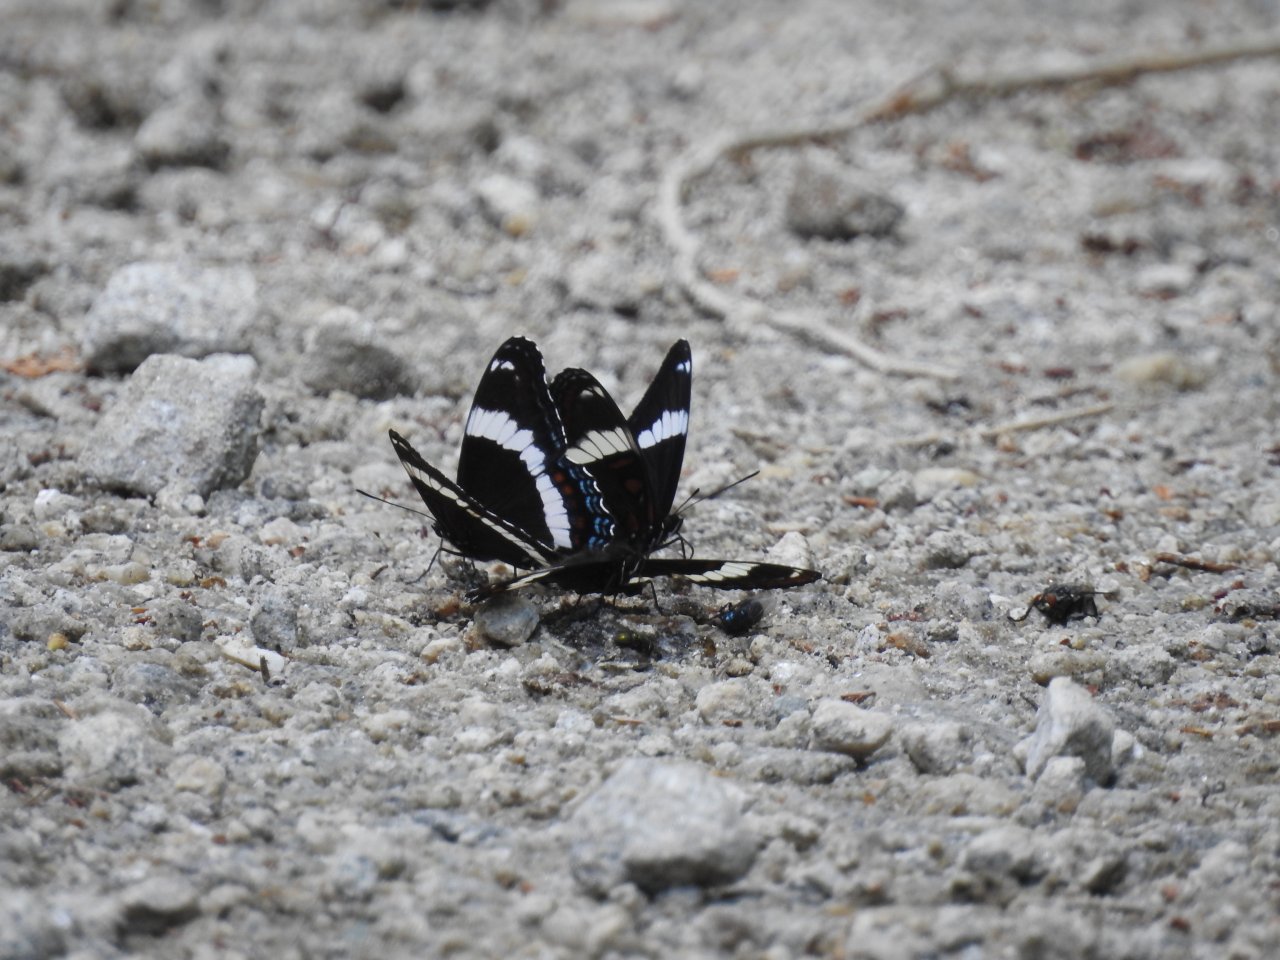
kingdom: Animalia
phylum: Arthropoda
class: Insecta
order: Lepidoptera
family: Nymphalidae
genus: Limenitis
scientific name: Limenitis arthemis
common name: Red-spotted Admiral
